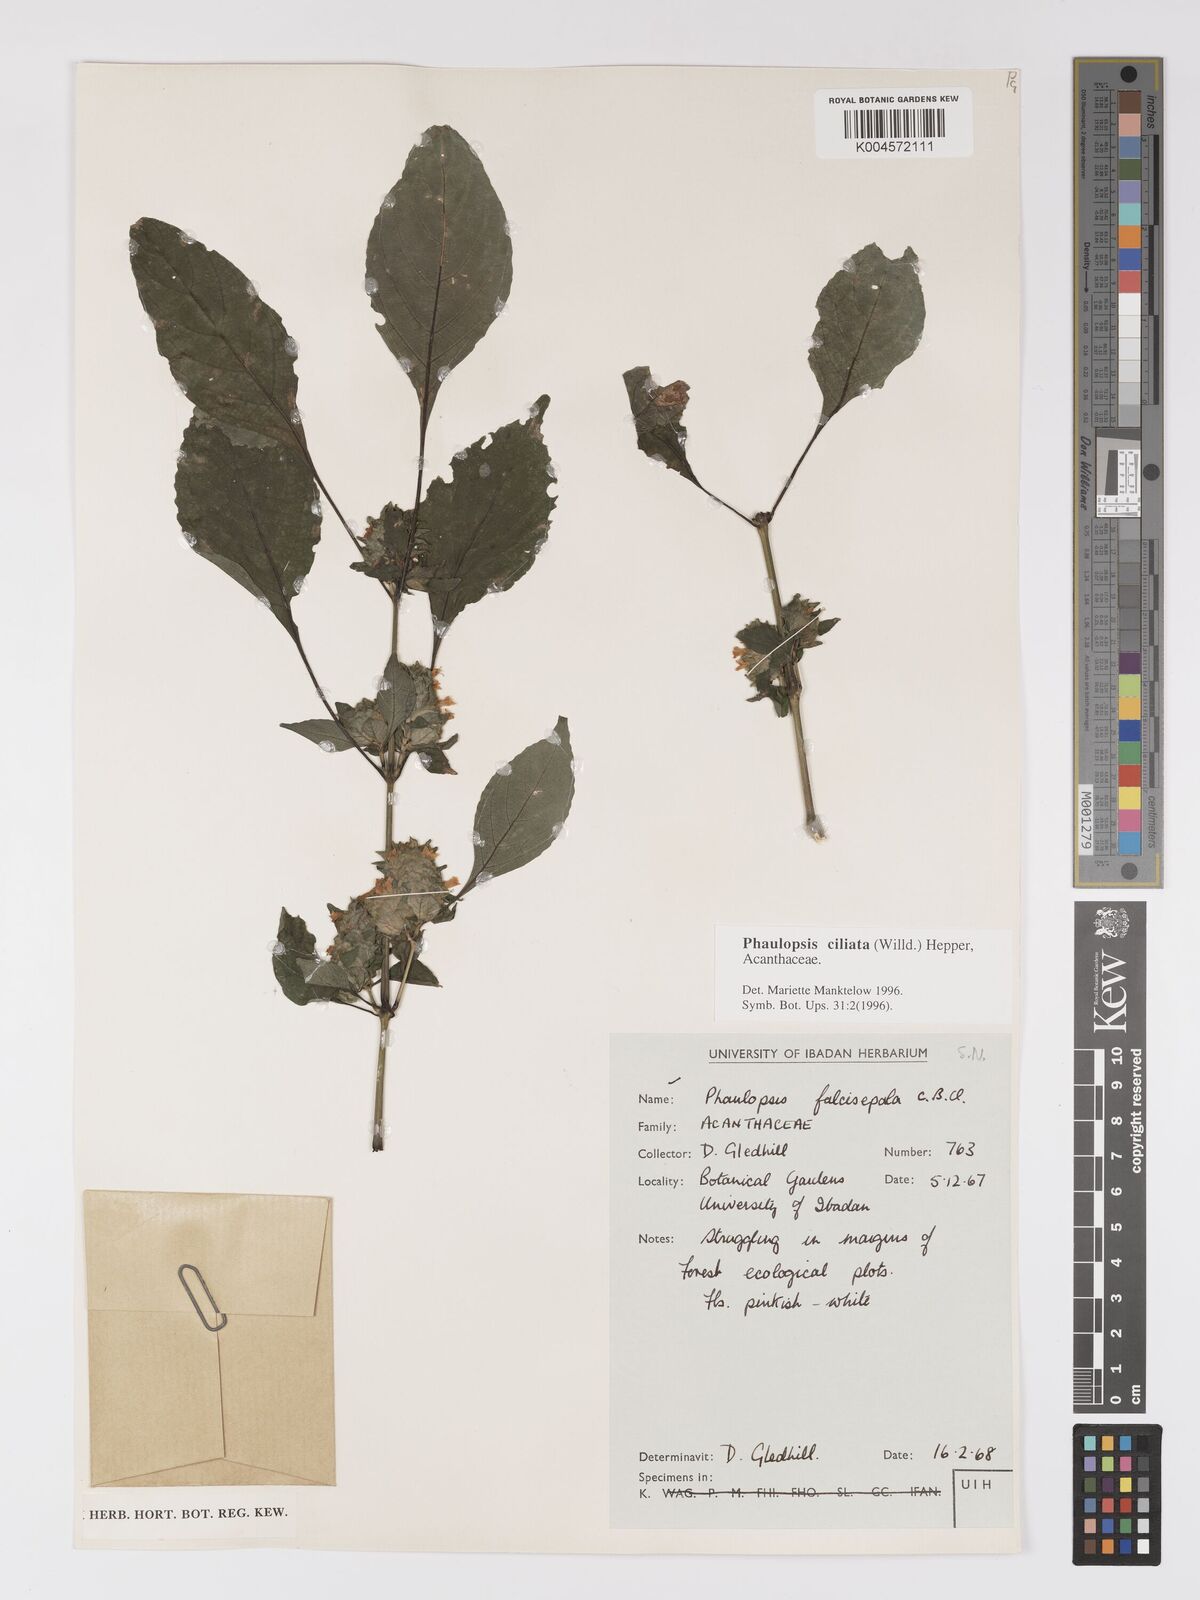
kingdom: Plantae
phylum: Tracheophyta
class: Magnoliopsida
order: Lamiales
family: Acanthaceae
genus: Phaulopsis
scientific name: Phaulopsis ciliata
